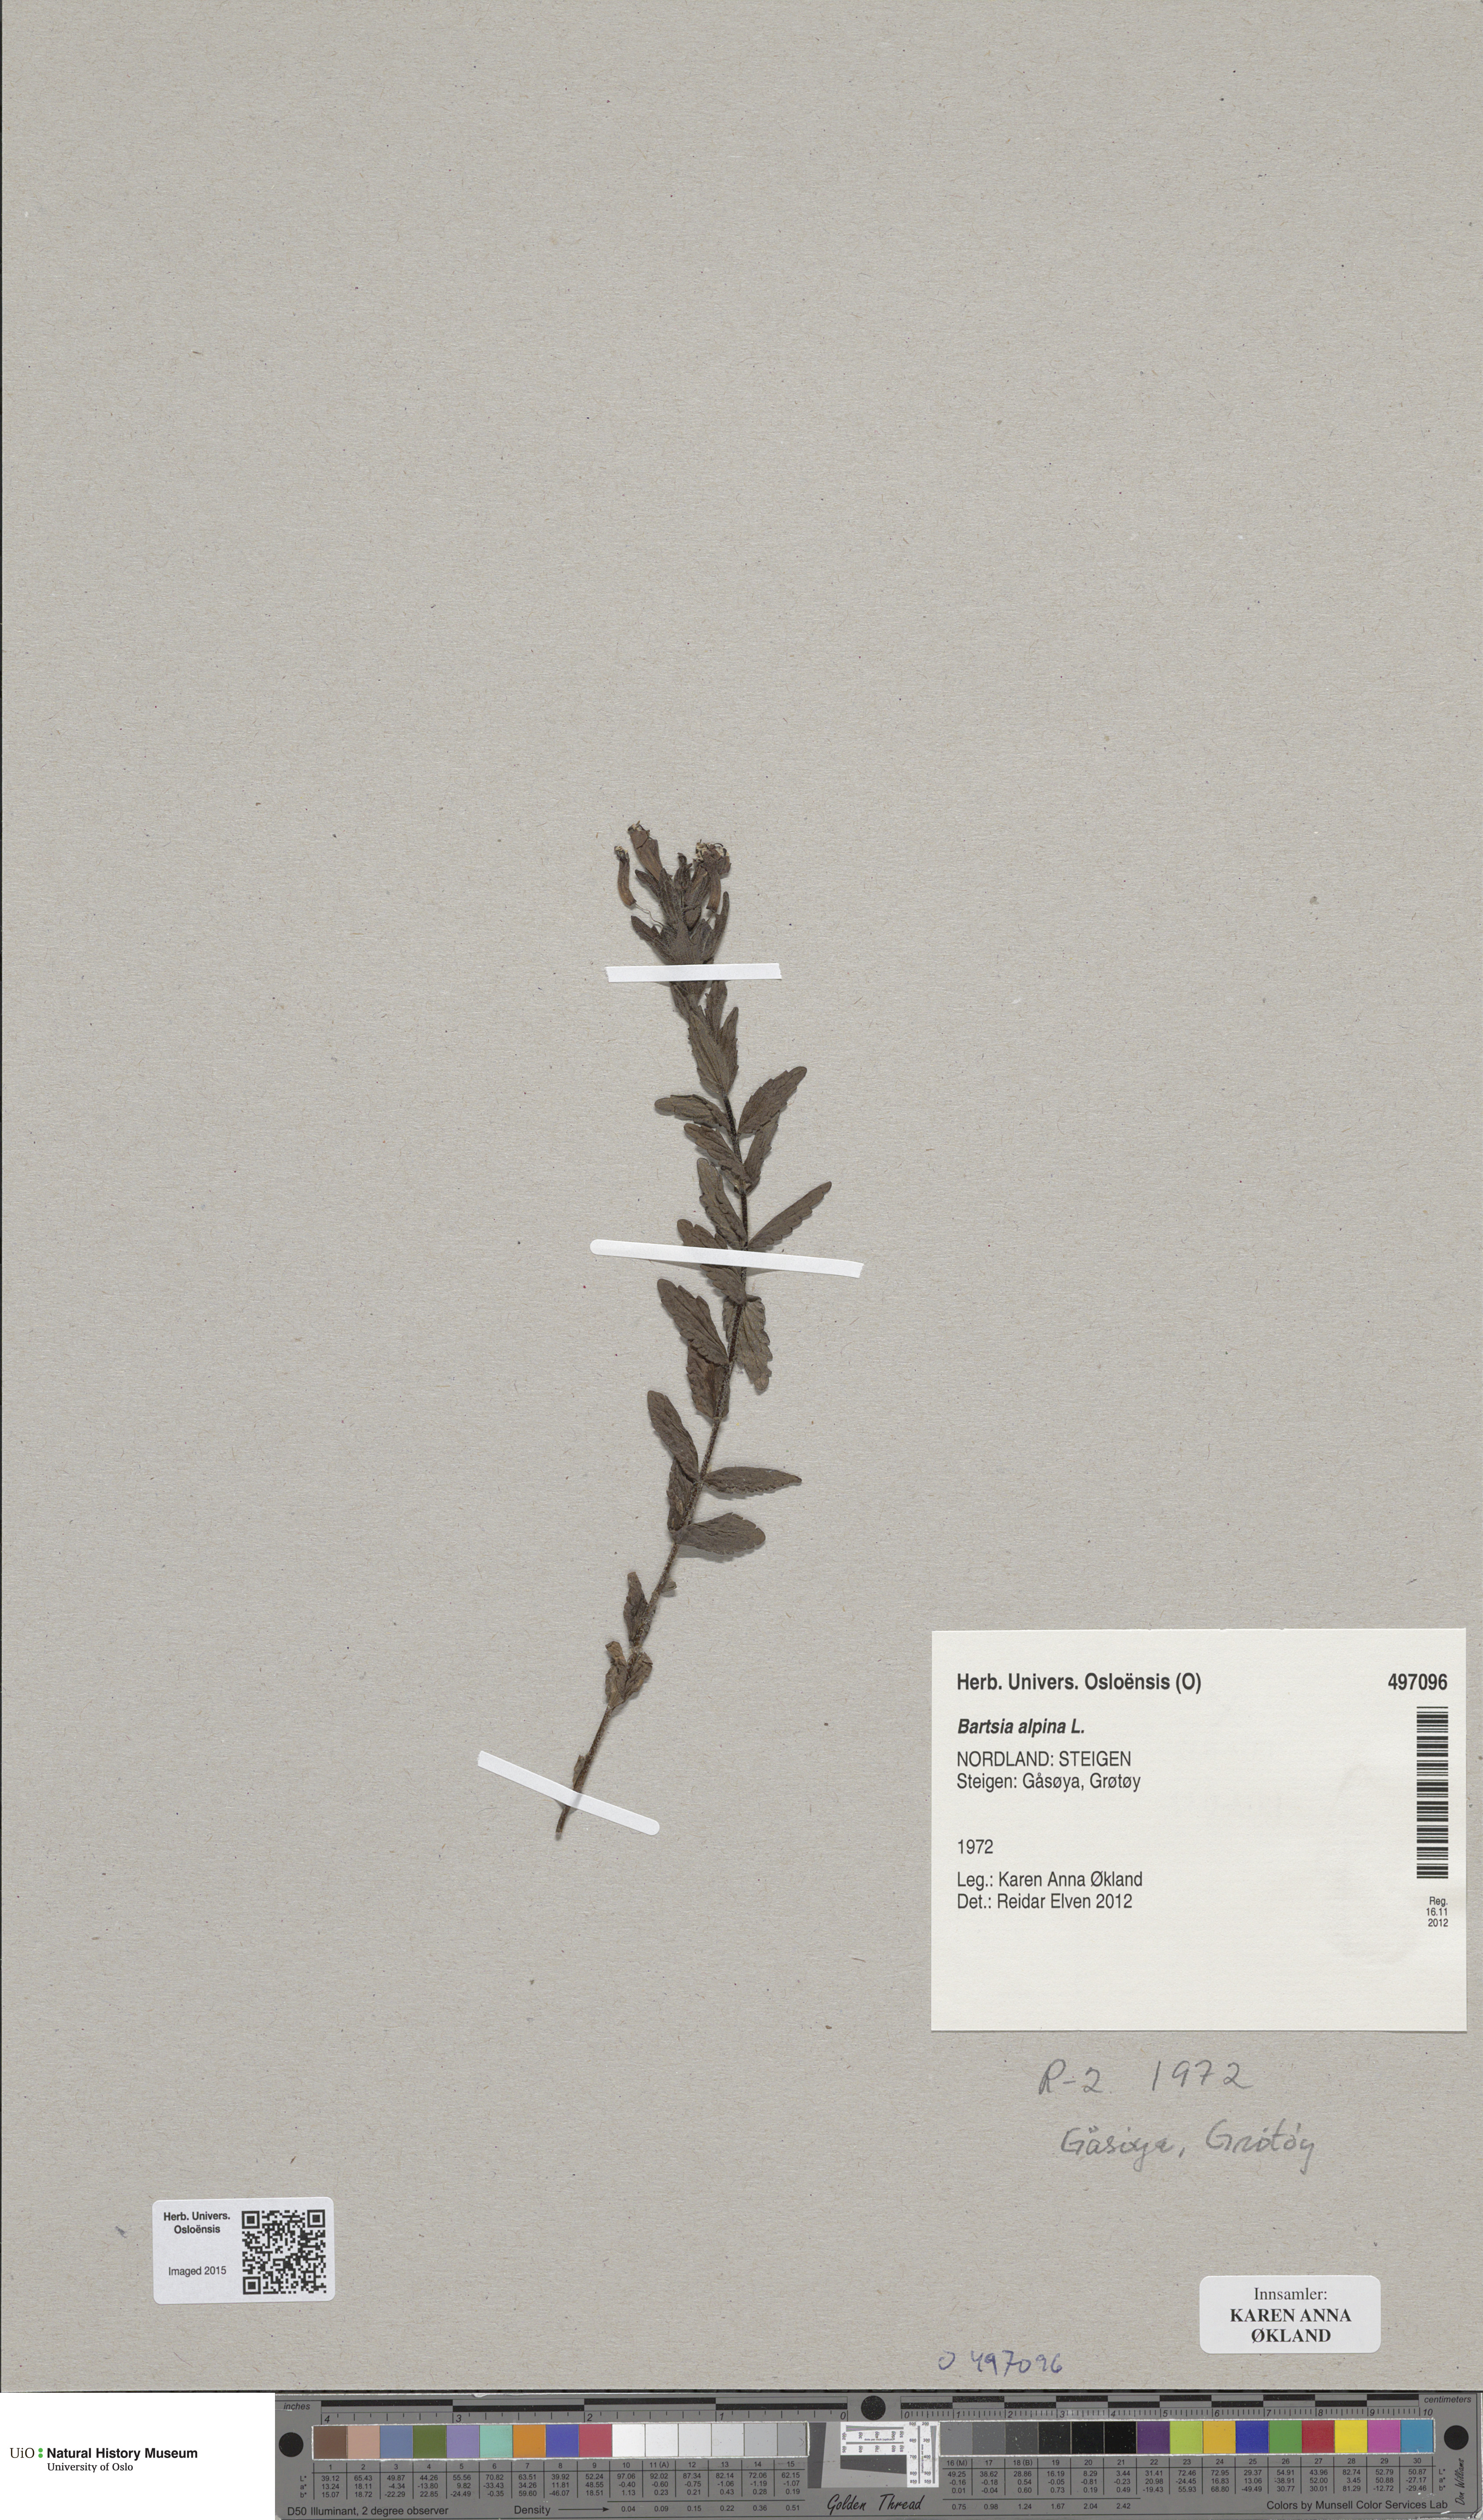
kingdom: Plantae
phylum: Tracheophyta
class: Magnoliopsida
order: Lamiales
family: Orobanchaceae
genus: Bartsia
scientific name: Bartsia alpina
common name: Alpine bartsia
